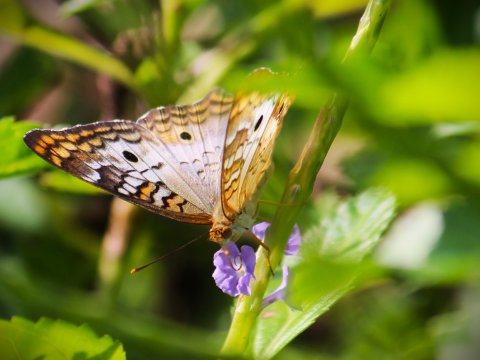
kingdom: Animalia
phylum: Arthropoda
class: Insecta
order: Lepidoptera
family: Nymphalidae
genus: Anartia
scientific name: Anartia jatrophae
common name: White Peacock
